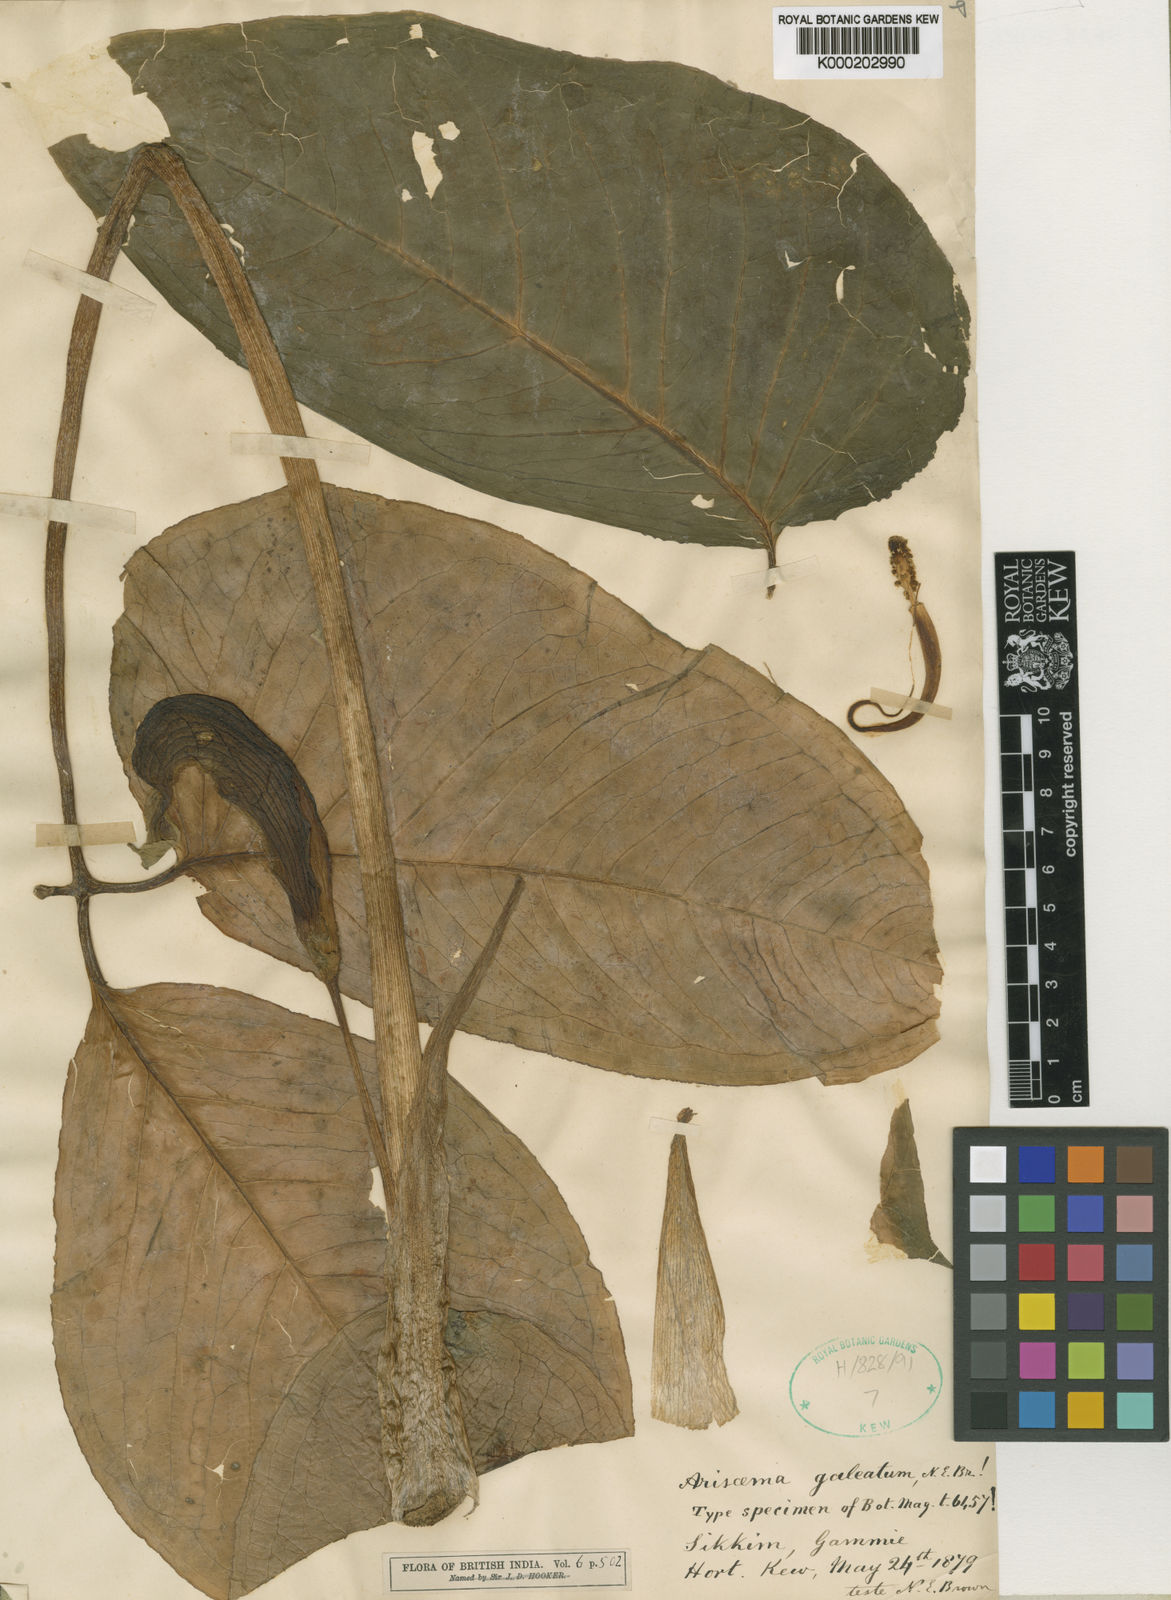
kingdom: Plantae
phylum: Tracheophyta
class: Liliopsida
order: Alismatales
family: Araceae
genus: Arisaema
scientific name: Arisaema galeatum
